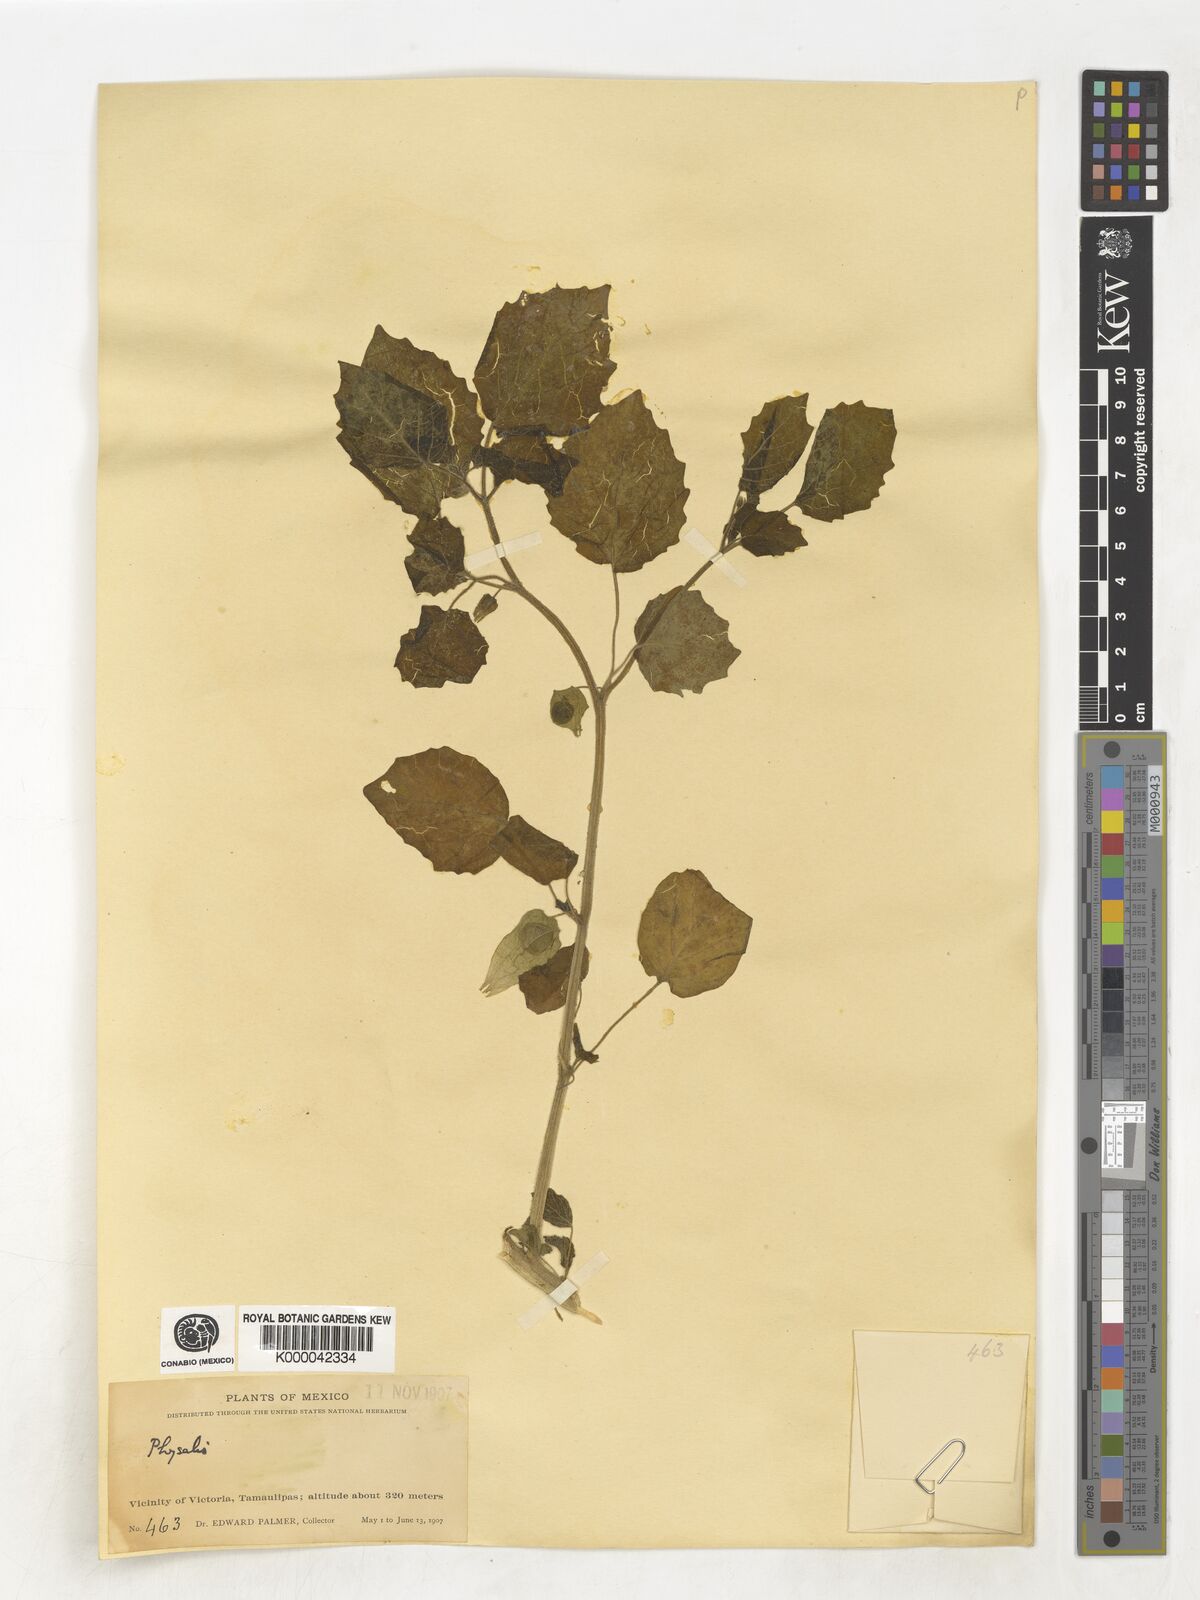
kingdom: Plantae
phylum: Tracheophyta
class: Magnoliopsida
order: Solanales
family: Solanaceae
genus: Physalis
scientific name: Physalis
